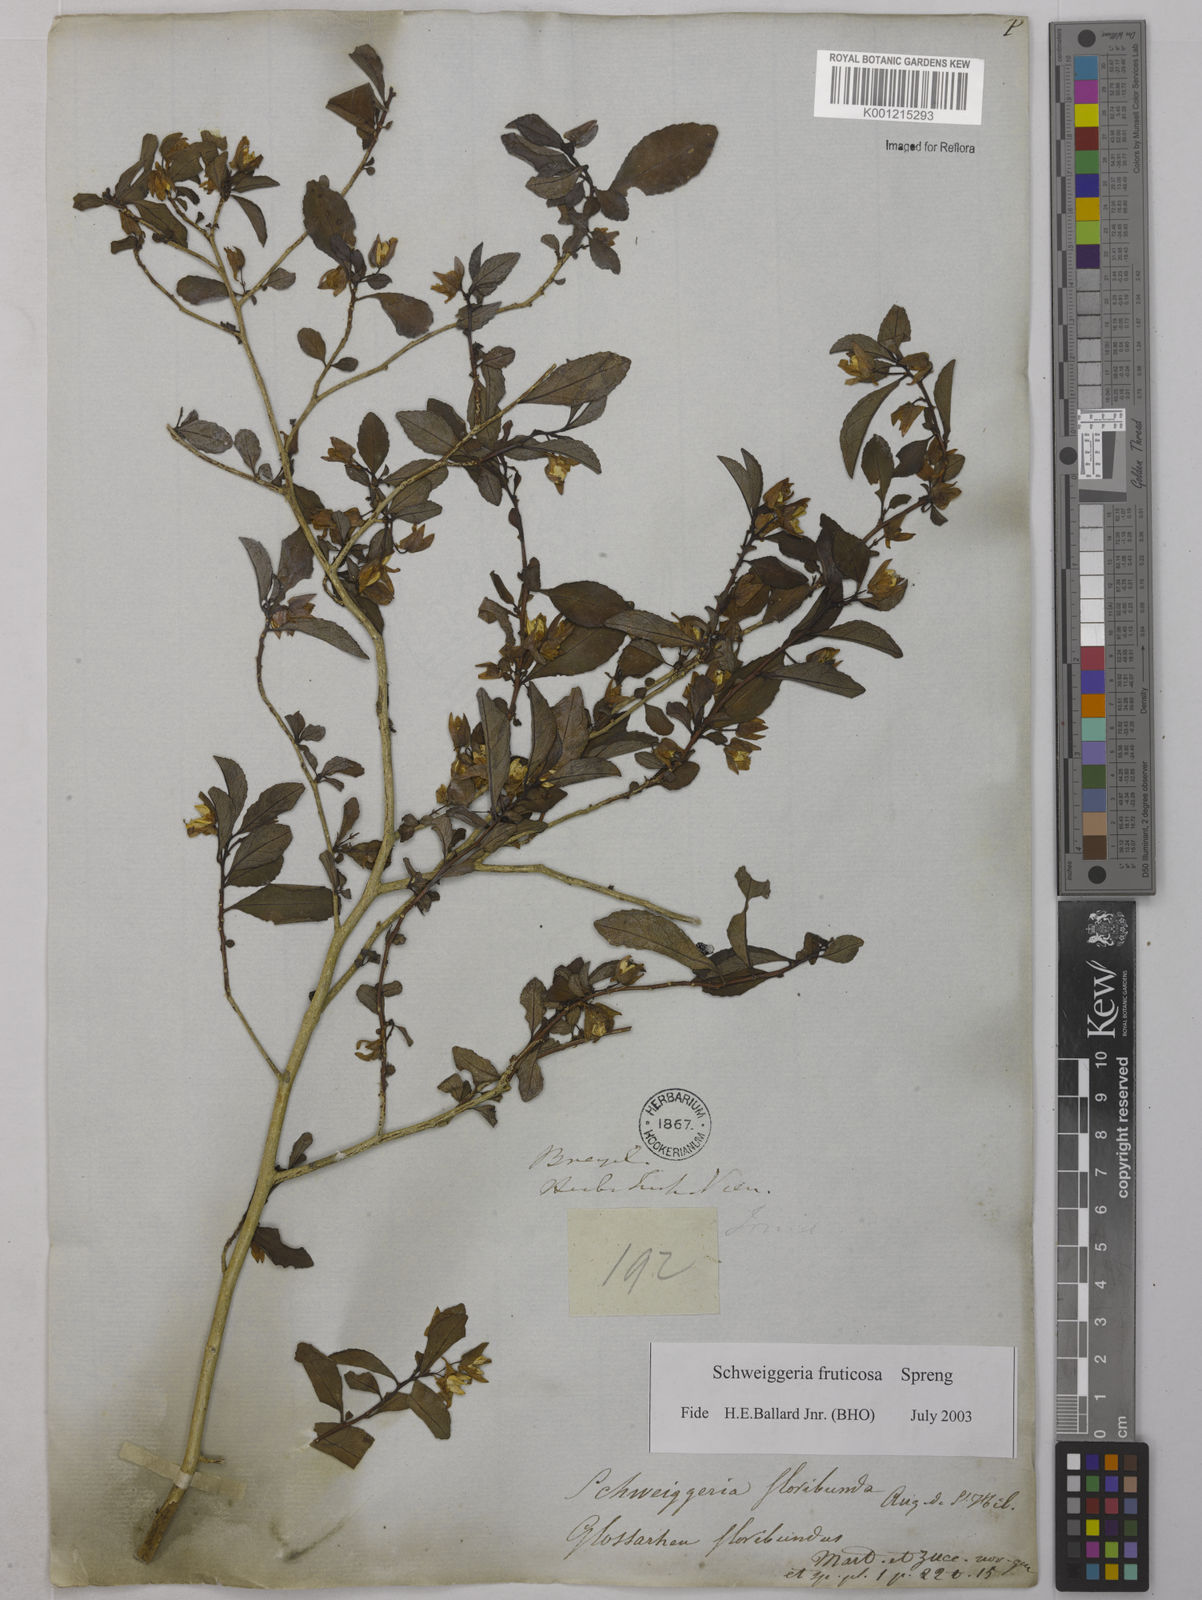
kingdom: Plantae
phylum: Tracheophyta
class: Magnoliopsida
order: Malpighiales
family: Violaceae
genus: Schweiggeria
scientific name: Schweiggeria fruticosa
